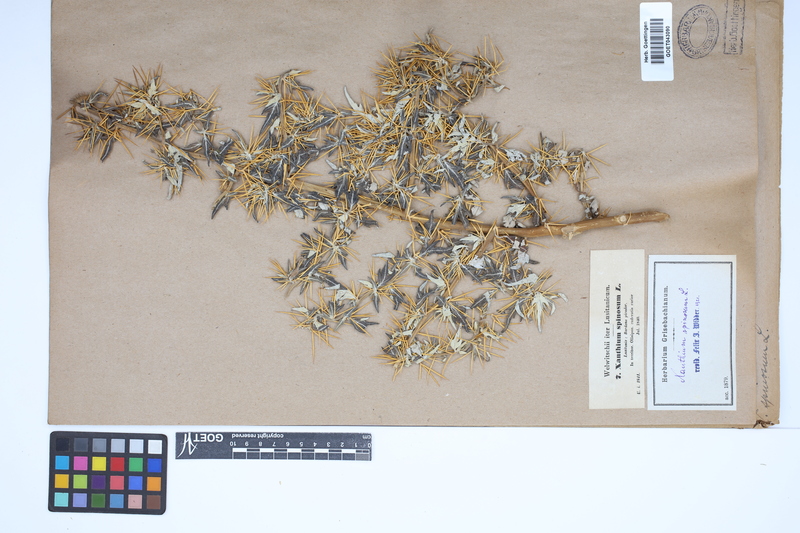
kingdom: Plantae
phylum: Tracheophyta
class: Magnoliopsida
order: Asterales
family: Asteraceae
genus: Xanthium
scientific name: Xanthium spinosum
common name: Spiny cocklebur
